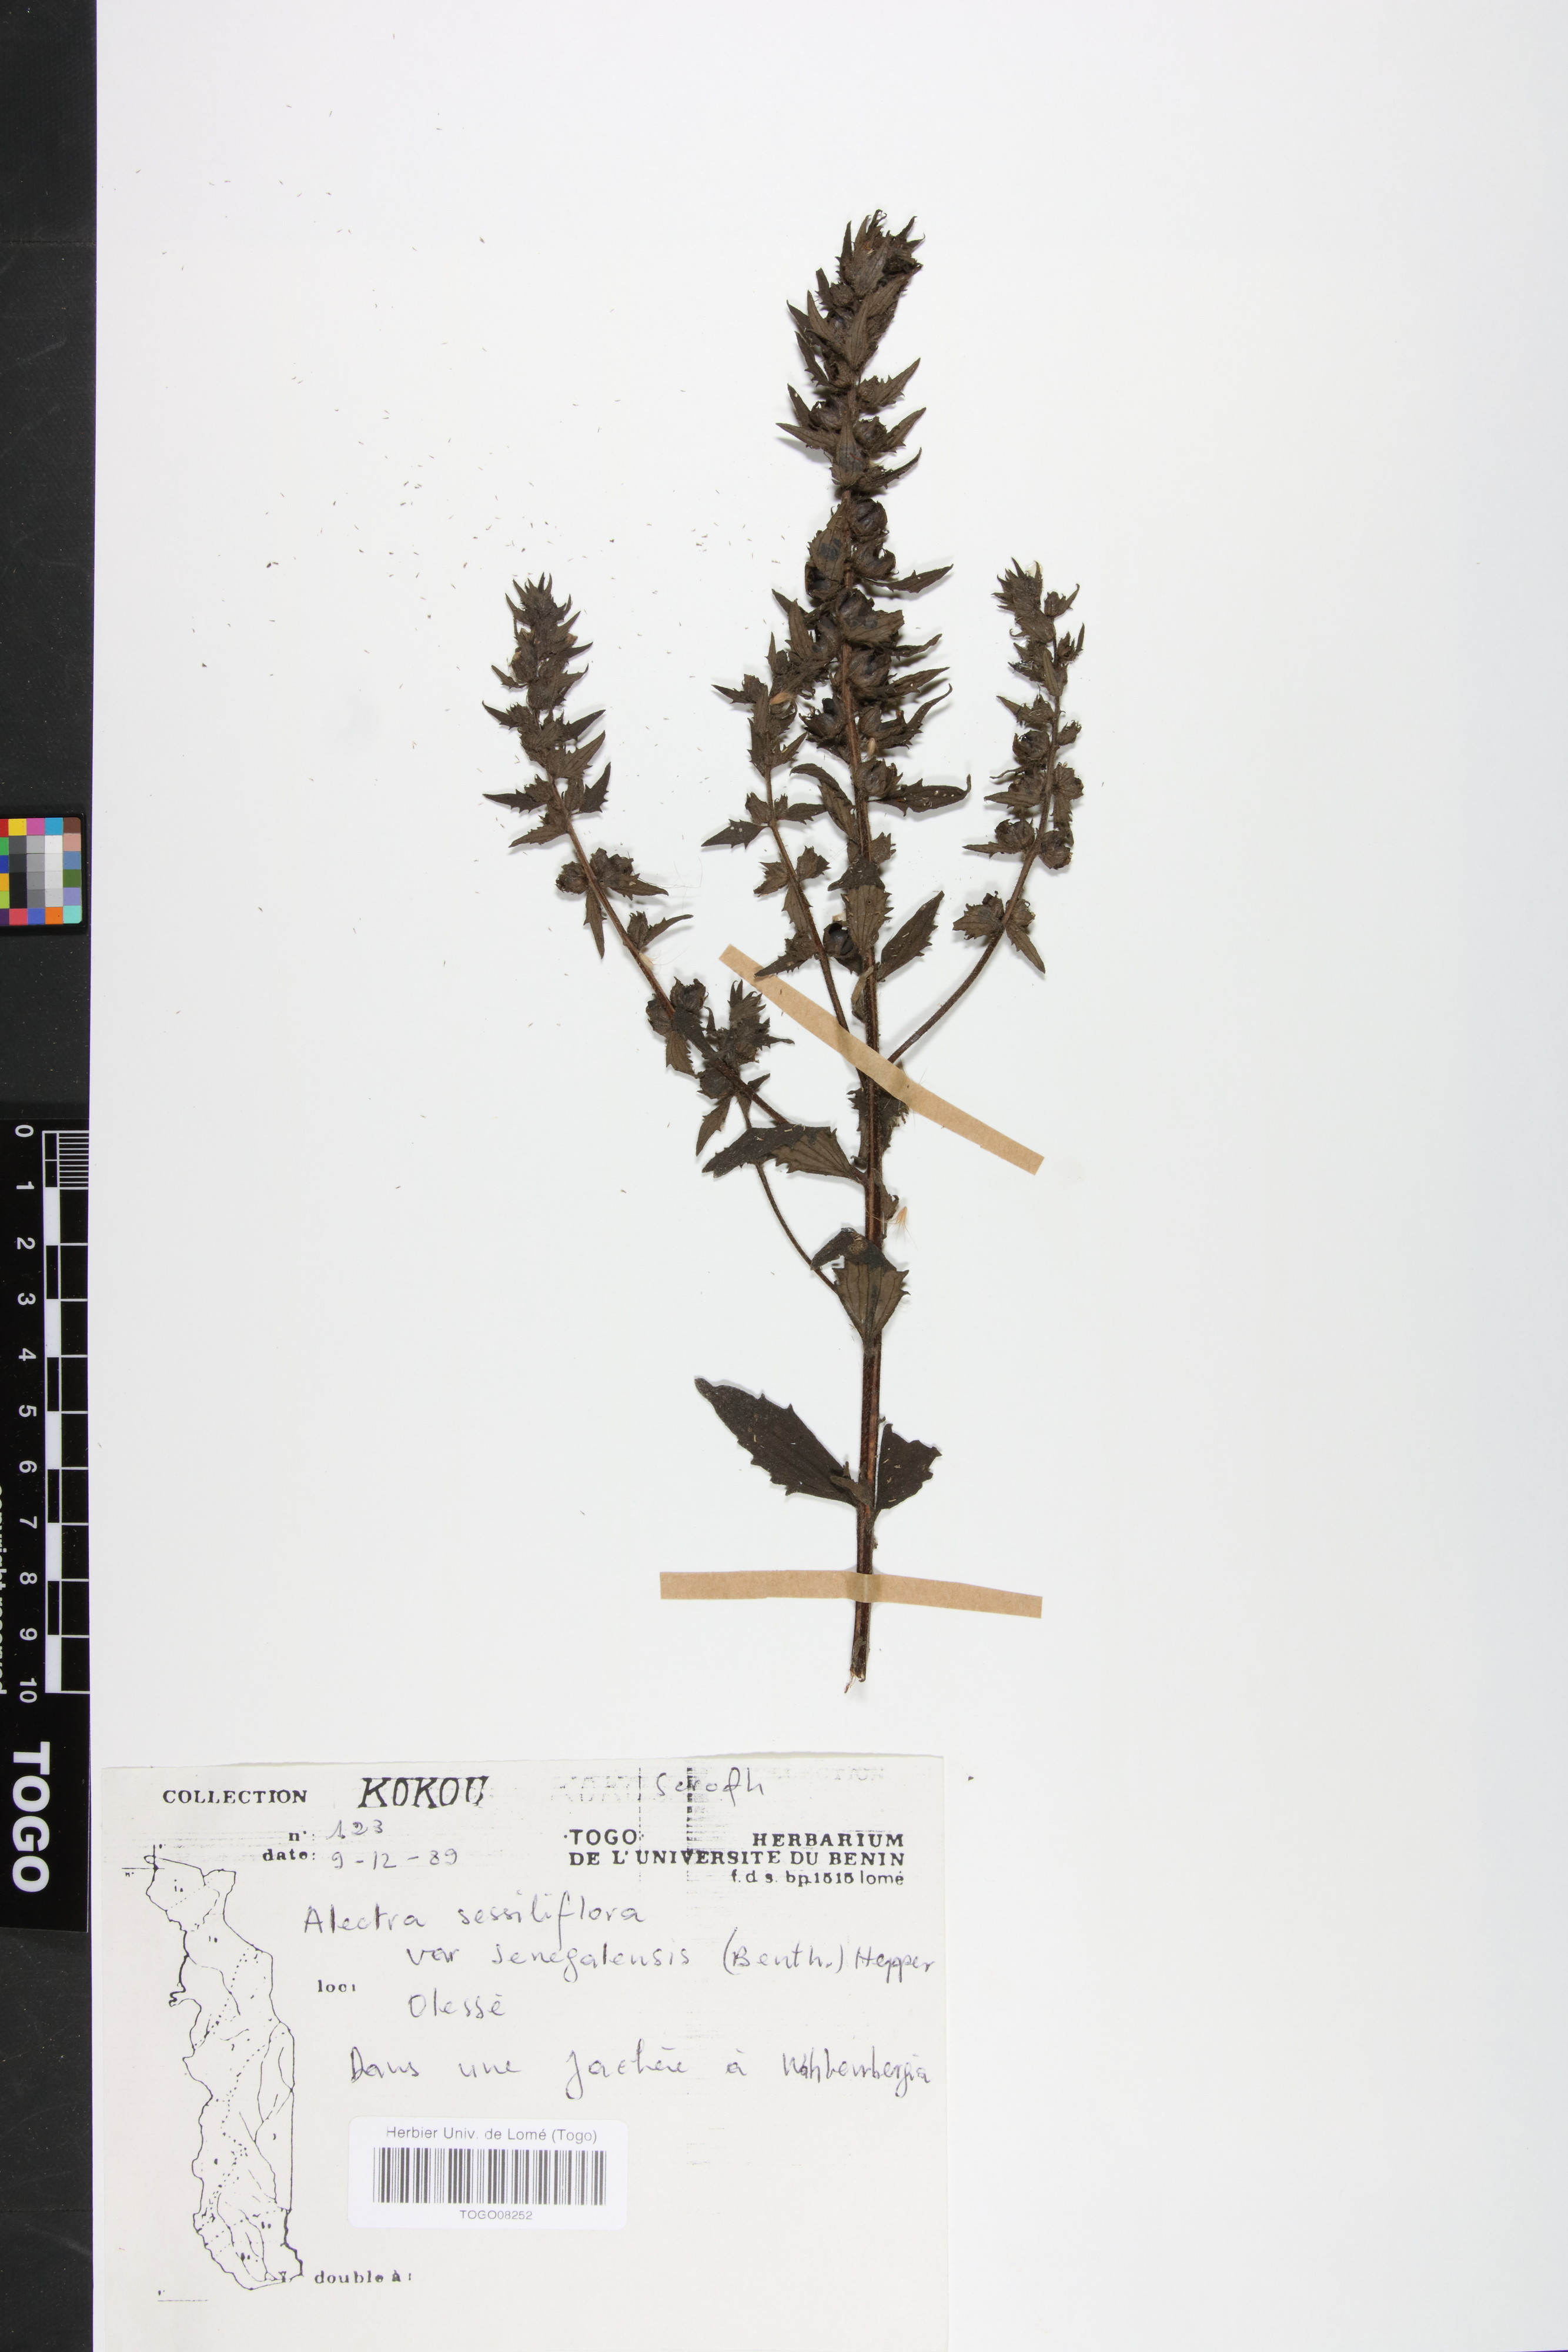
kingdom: Plantae
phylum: Tracheophyta
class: Magnoliopsida
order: Lamiales
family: Orobanchaceae
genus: Alectra
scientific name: Alectra sessiliflora
